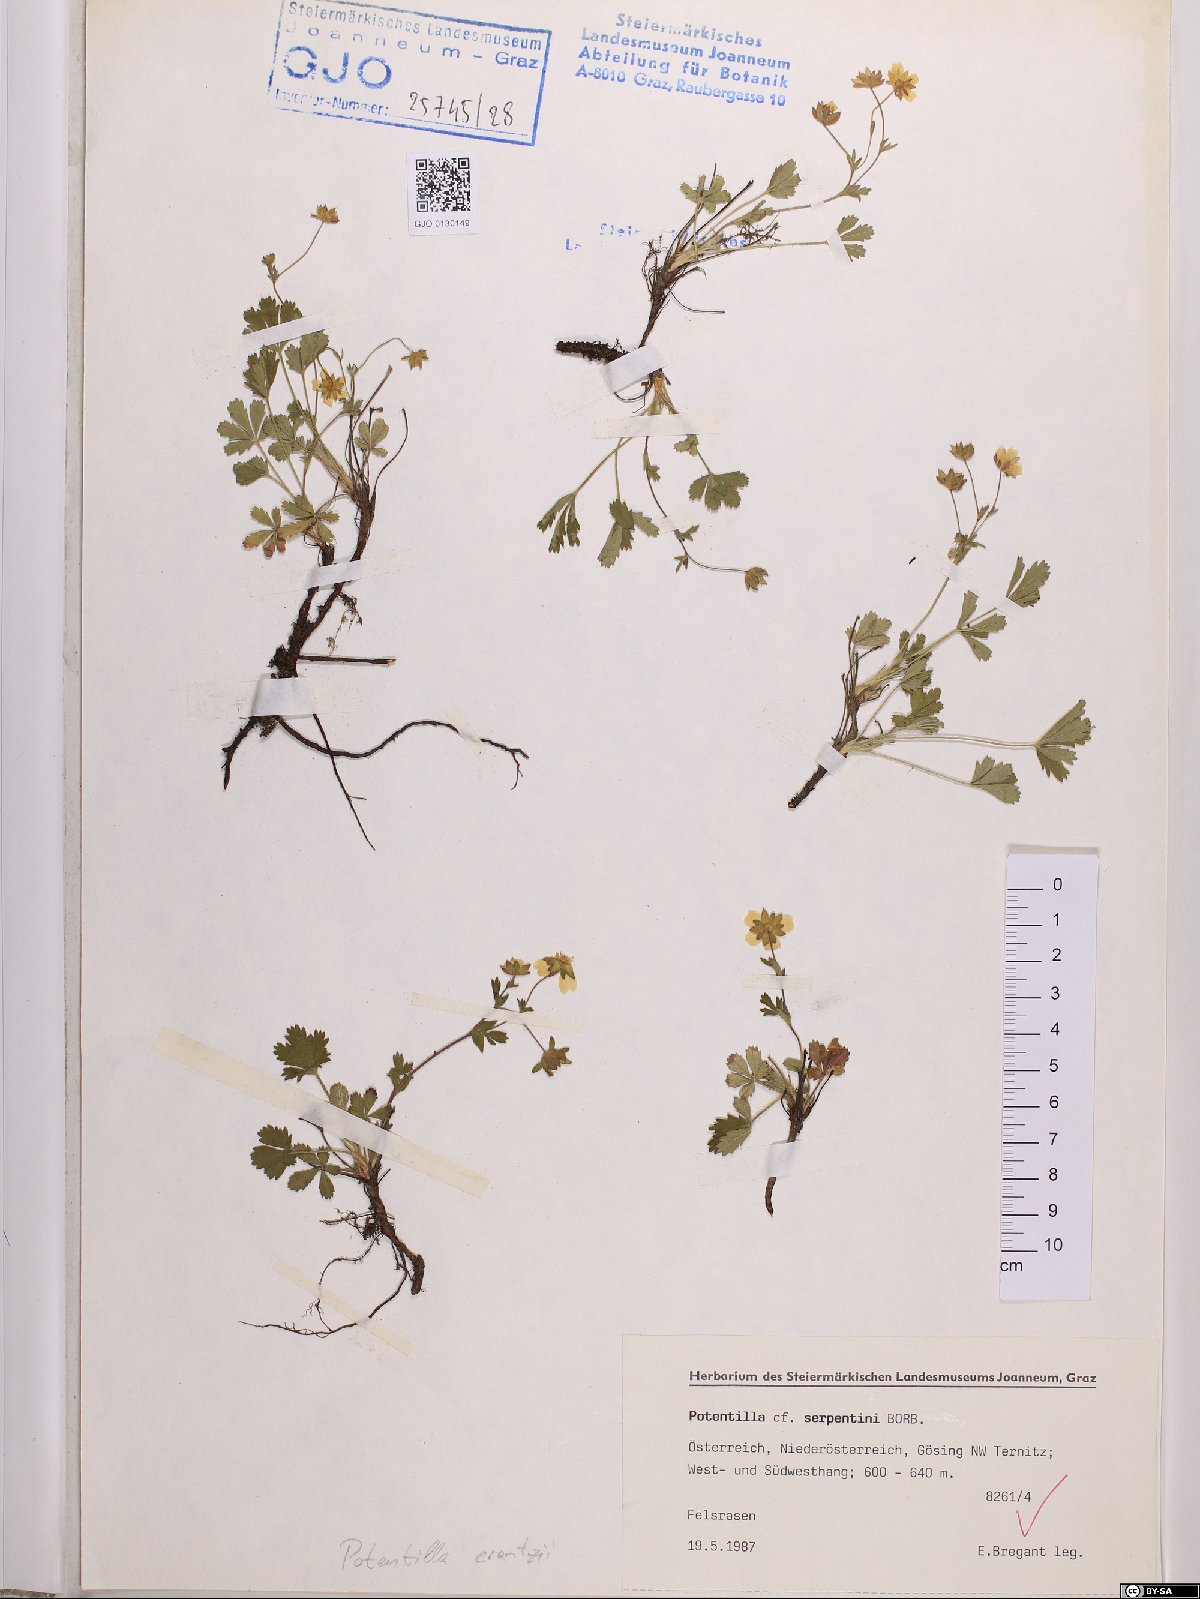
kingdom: Plantae
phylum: Tracheophyta
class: Magnoliopsida
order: Rosales
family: Rosaceae
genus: Potentilla
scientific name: Potentilla crantzii
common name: Alpine cinquefoil
